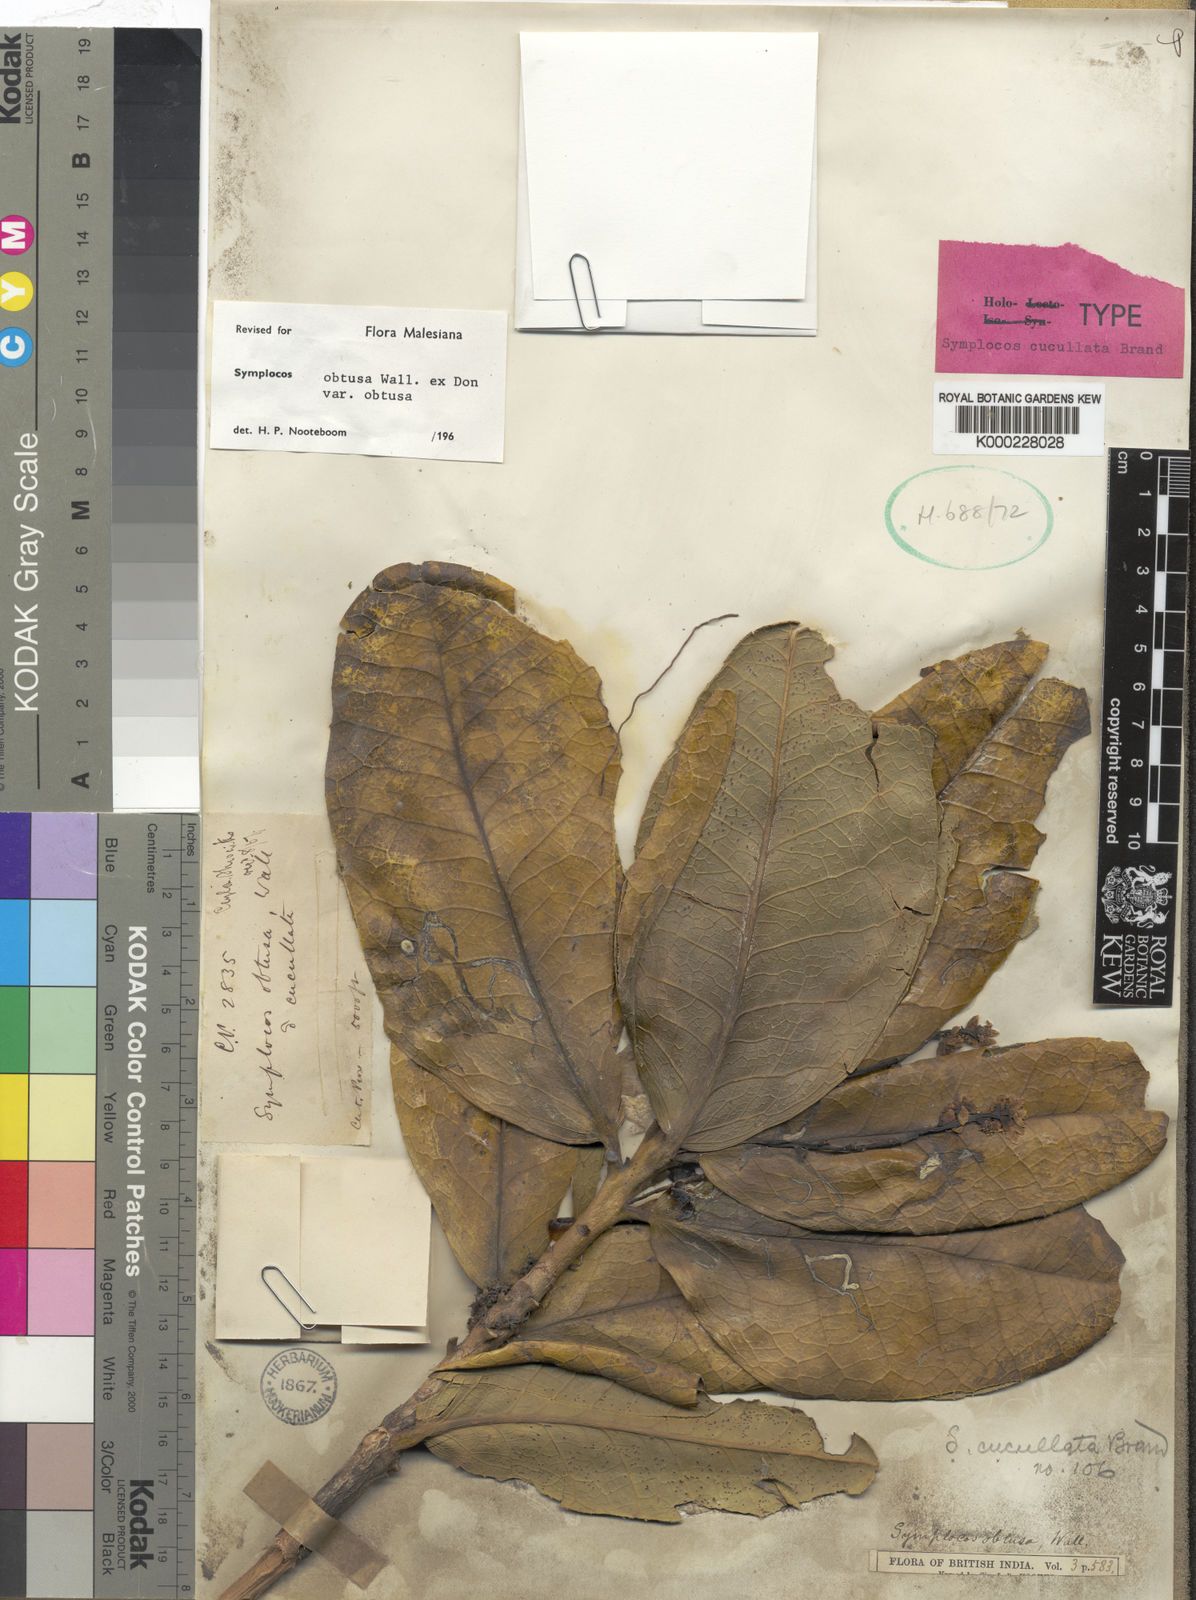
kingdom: Plantae
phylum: Tracheophyta
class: Magnoliopsida
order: Ericales
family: Symplocaceae
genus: Symplocos
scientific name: Symplocos
